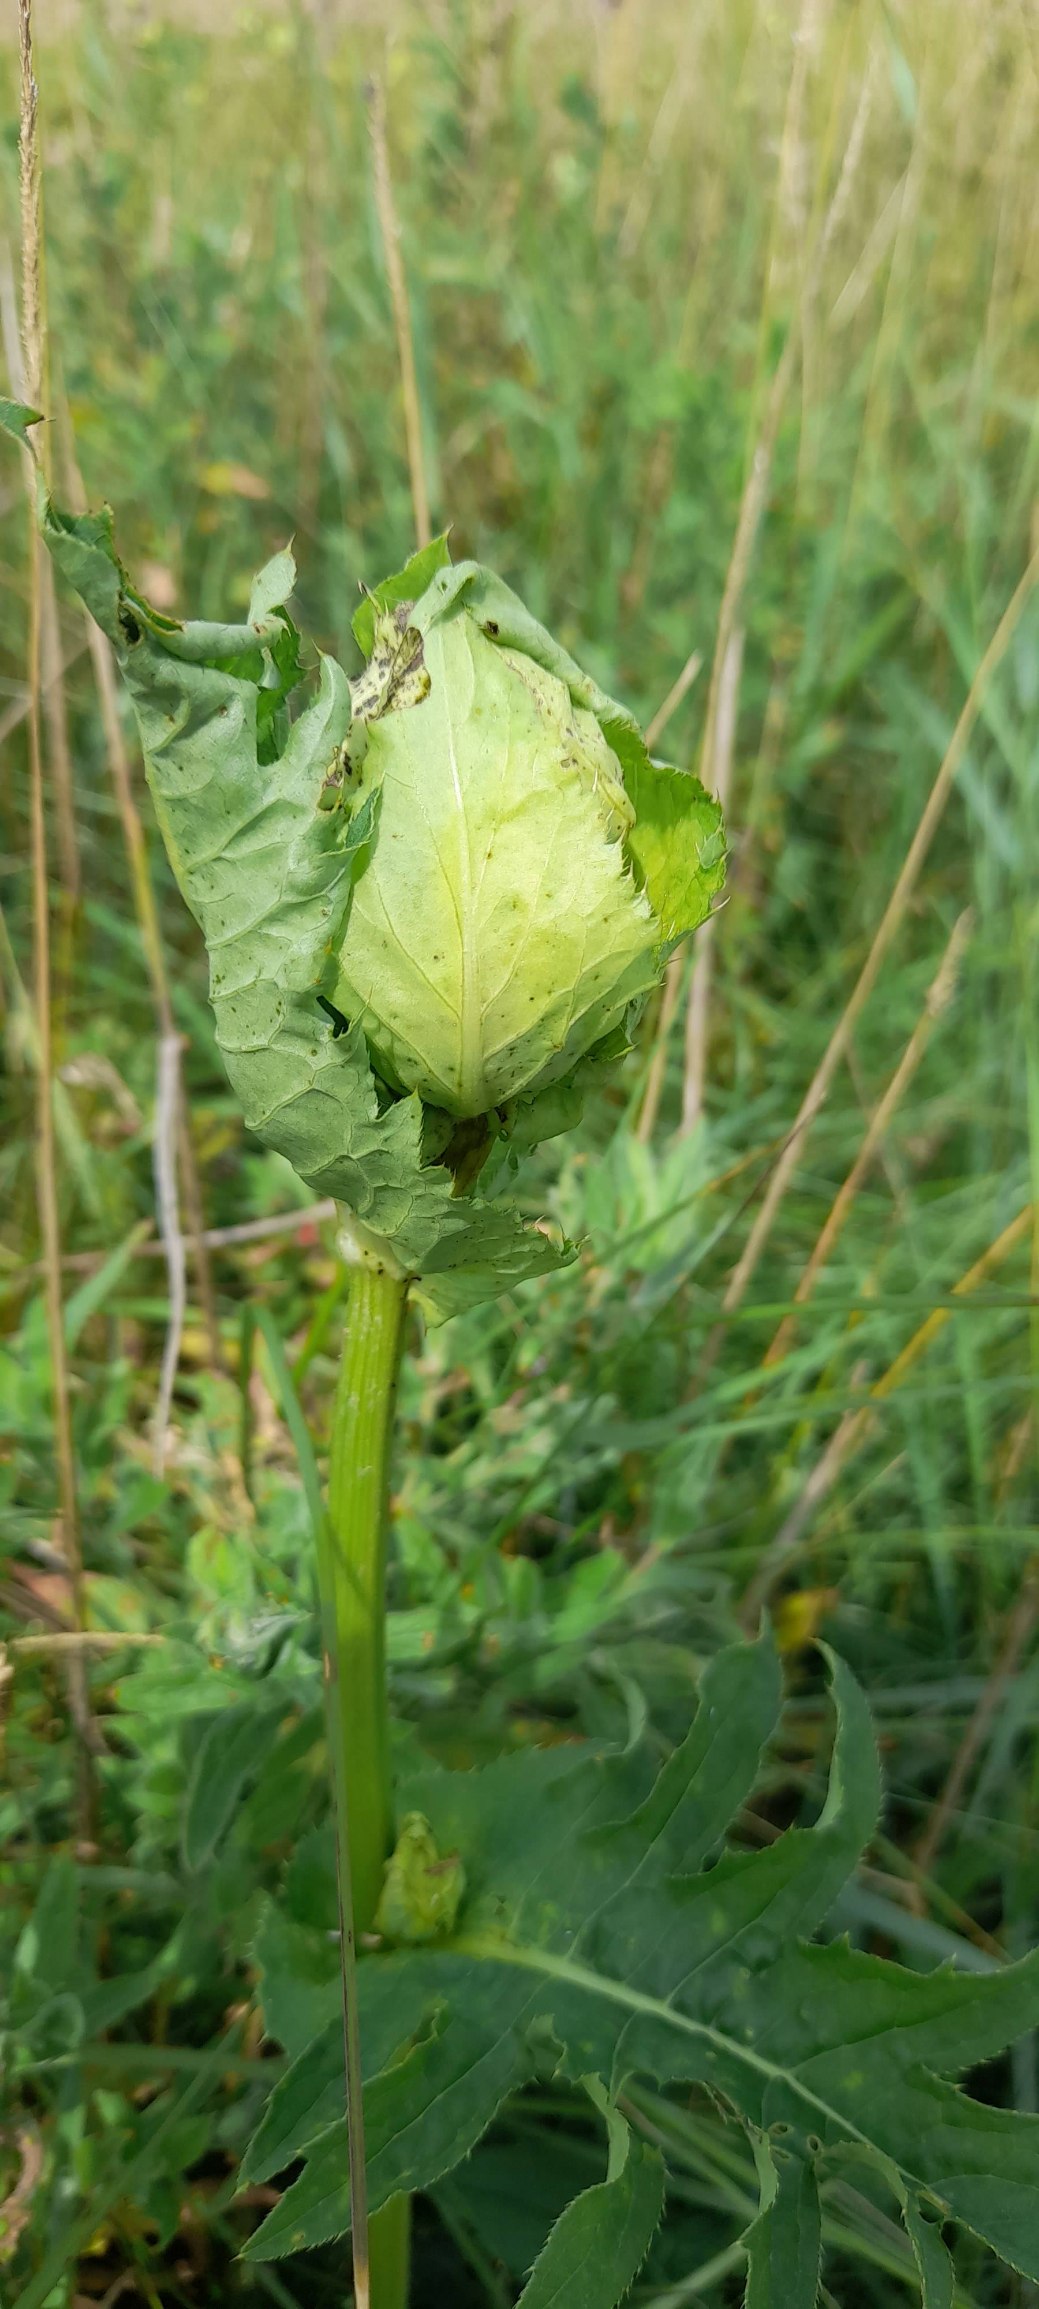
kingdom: Plantae
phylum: Tracheophyta
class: Magnoliopsida
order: Asterales
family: Asteraceae
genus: Cirsium
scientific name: Cirsium oleraceum
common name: Kål-tidsel
